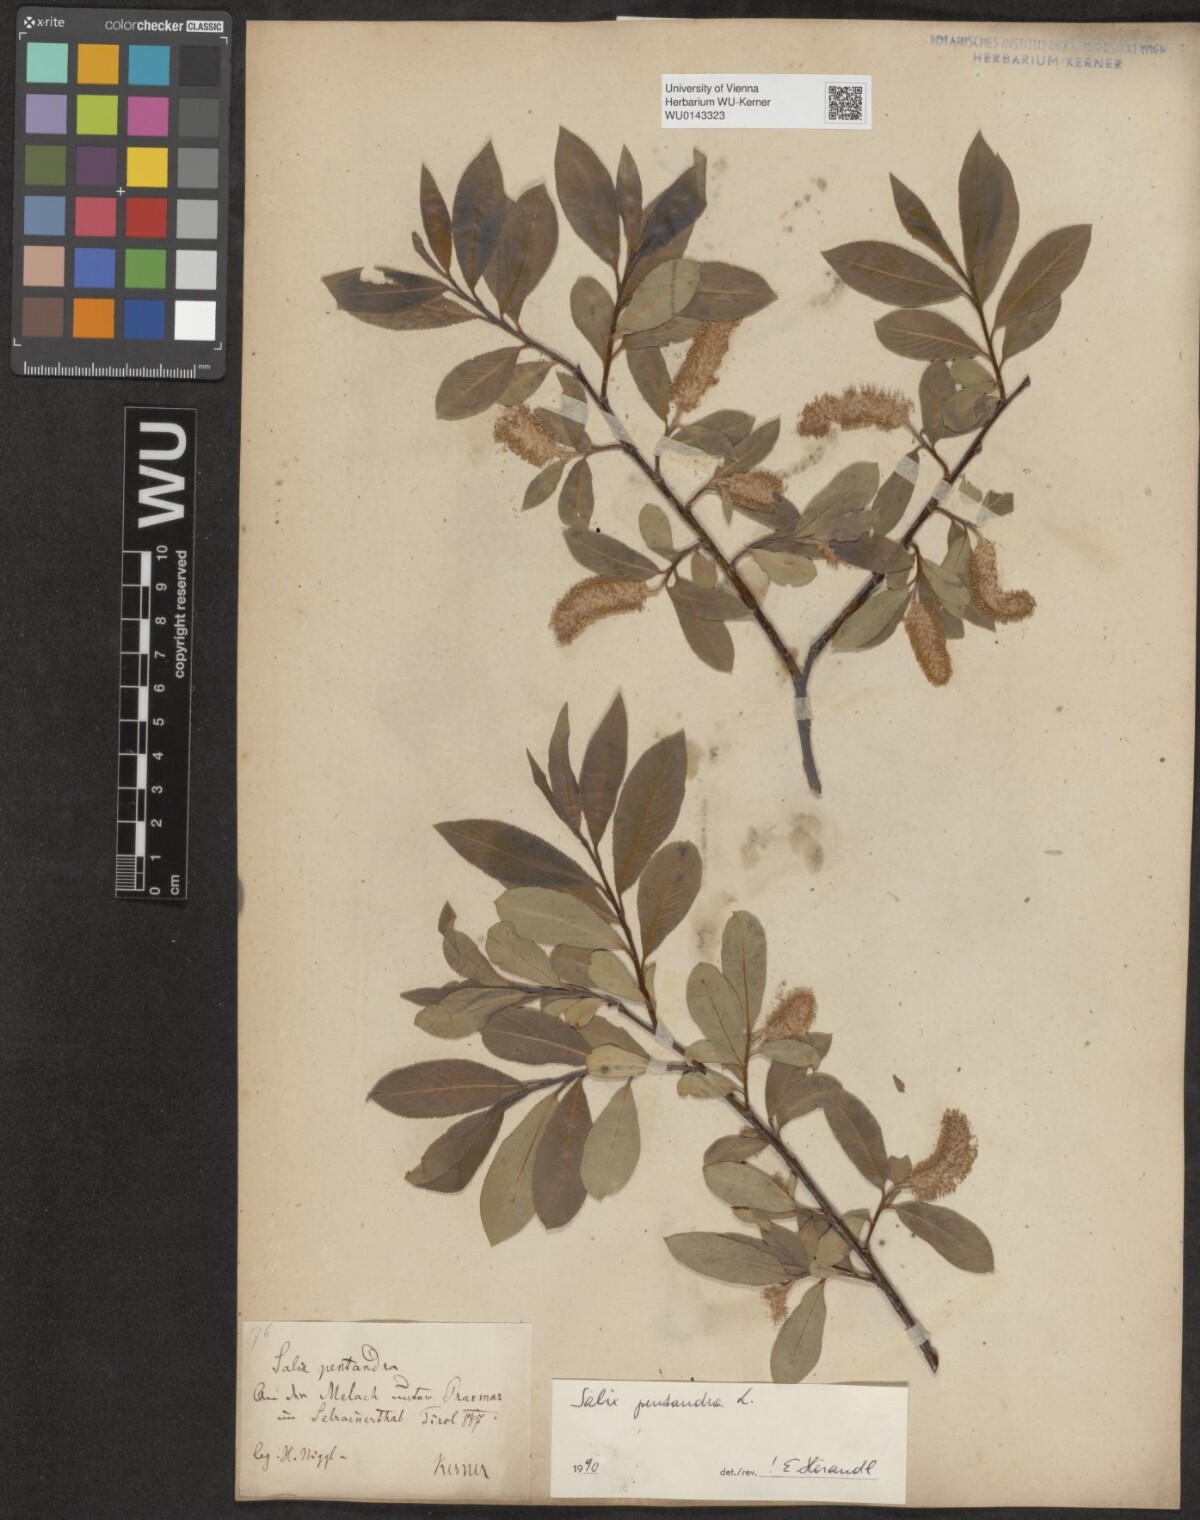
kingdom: Plantae
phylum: Tracheophyta
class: Magnoliopsida
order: Malpighiales
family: Salicaceae
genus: Salix
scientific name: Salix pentandra
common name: Bay willow
